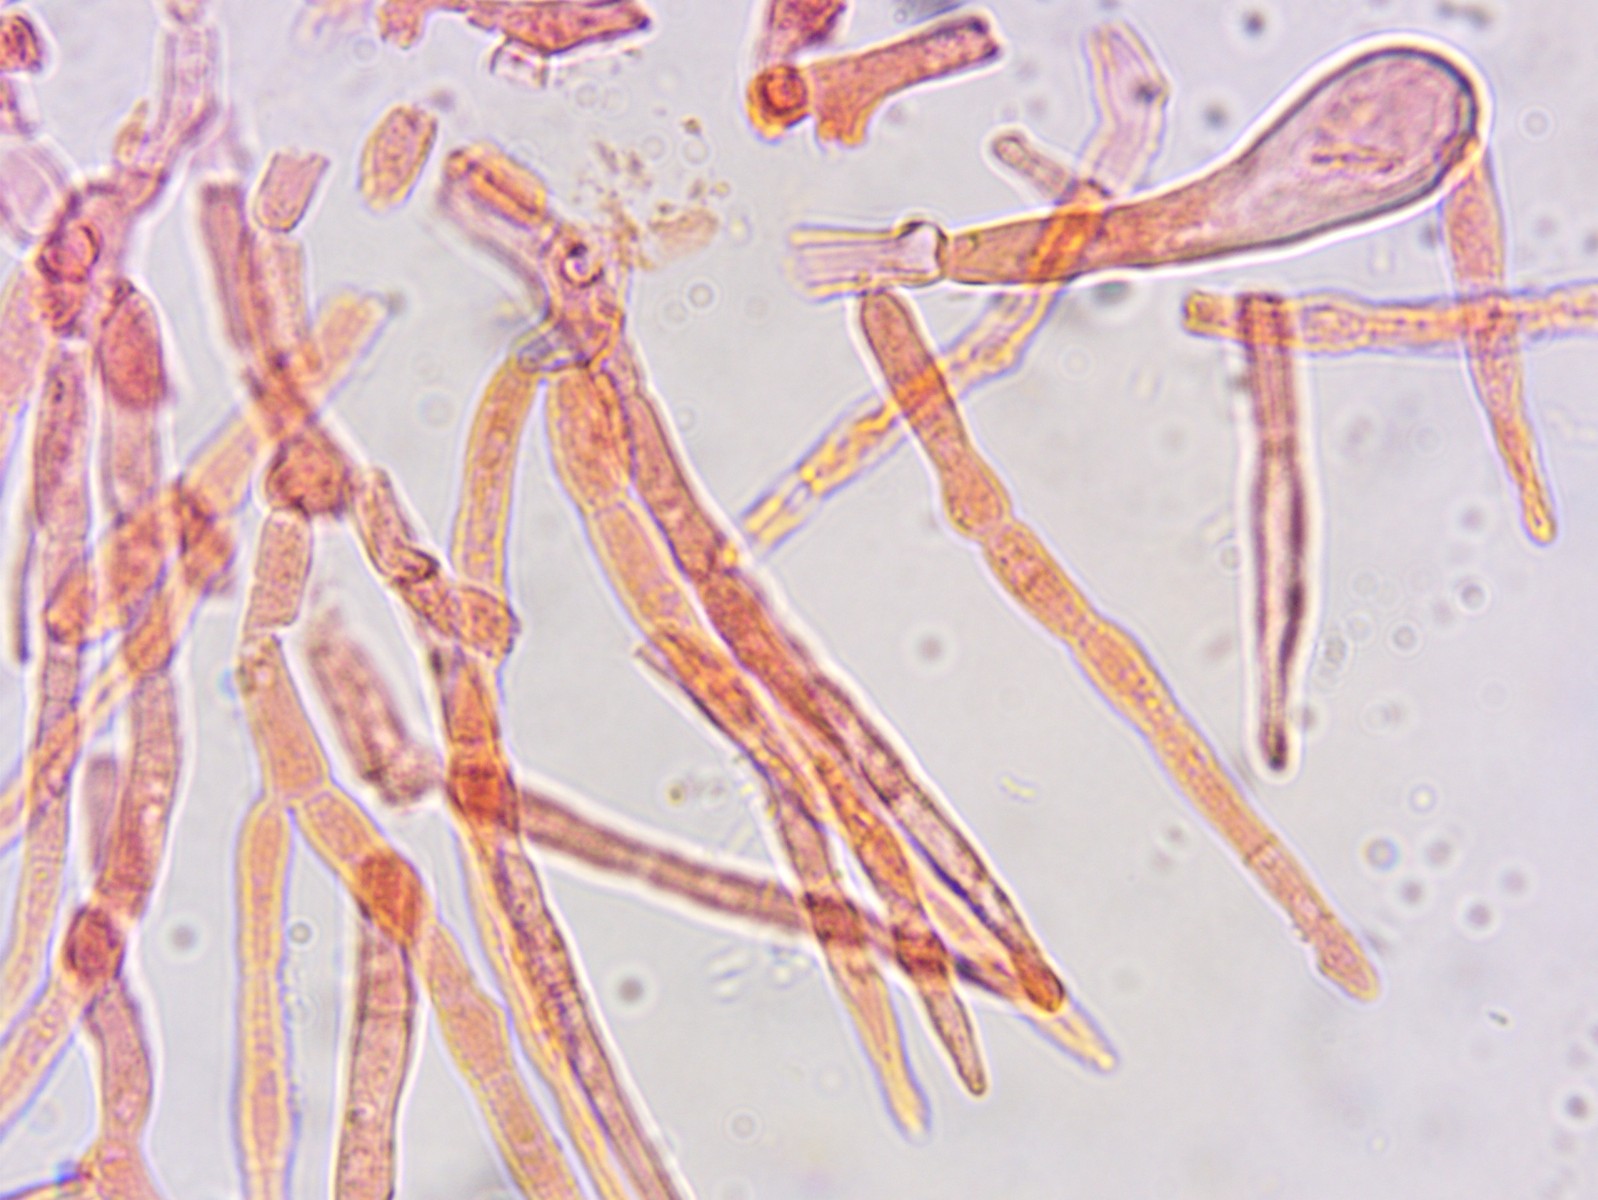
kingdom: Fungi
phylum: Basidiomycota
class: Agaricomycetes
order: Russulales
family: Russulaceae
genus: Russula
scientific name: Russula
